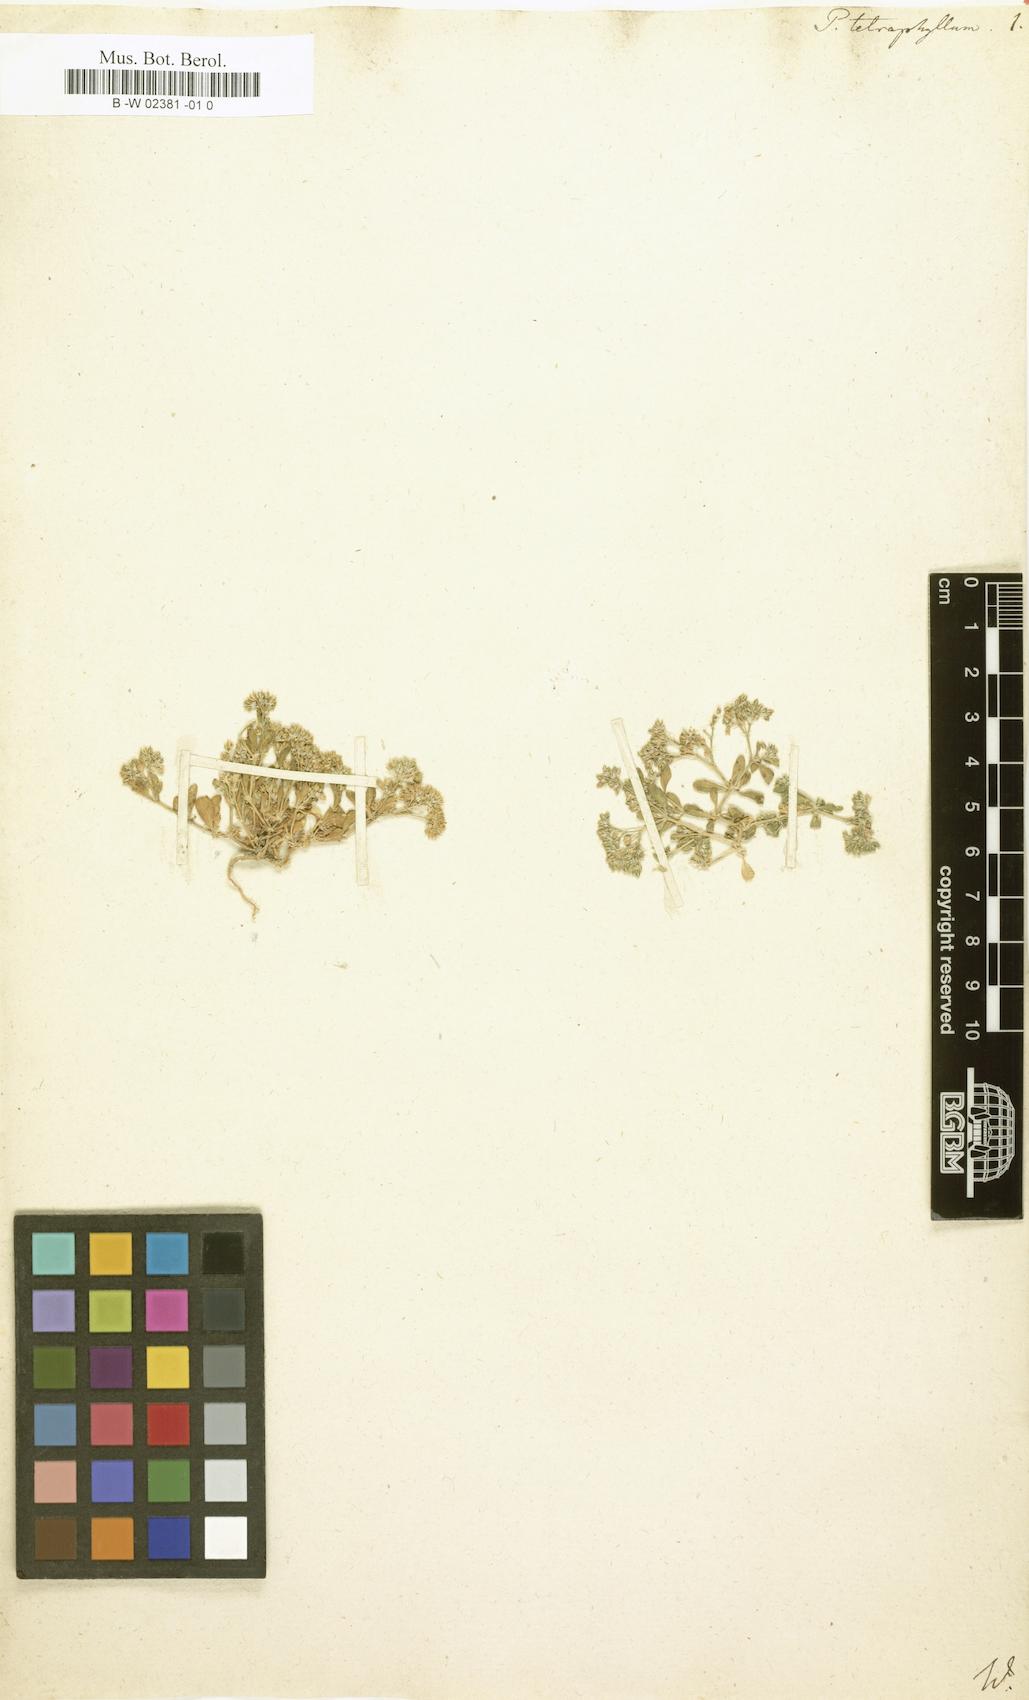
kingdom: Plantae
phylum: Tracheophyta
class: Magnoliopsida
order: Caryophyllales
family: Caryophyllaceae
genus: Polycarpon
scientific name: Polycarpon tetraphyllum
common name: Four-leaved all-seed
